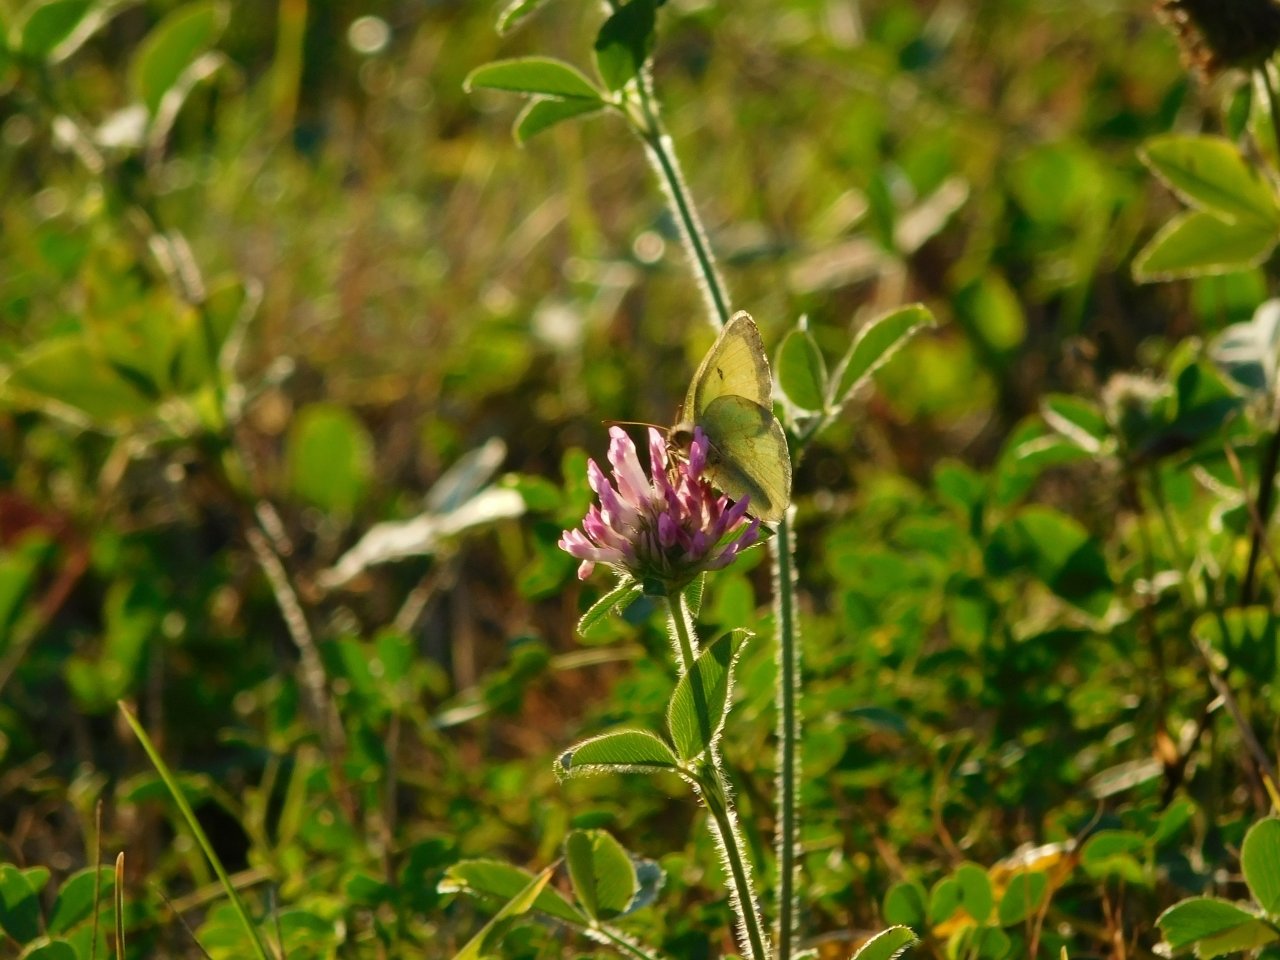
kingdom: Animalia
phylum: Arthropoda
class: Insecta
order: Lepidoptera
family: Pieridae
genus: Colias
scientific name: Colias philodice
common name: Clouded Sulphur
